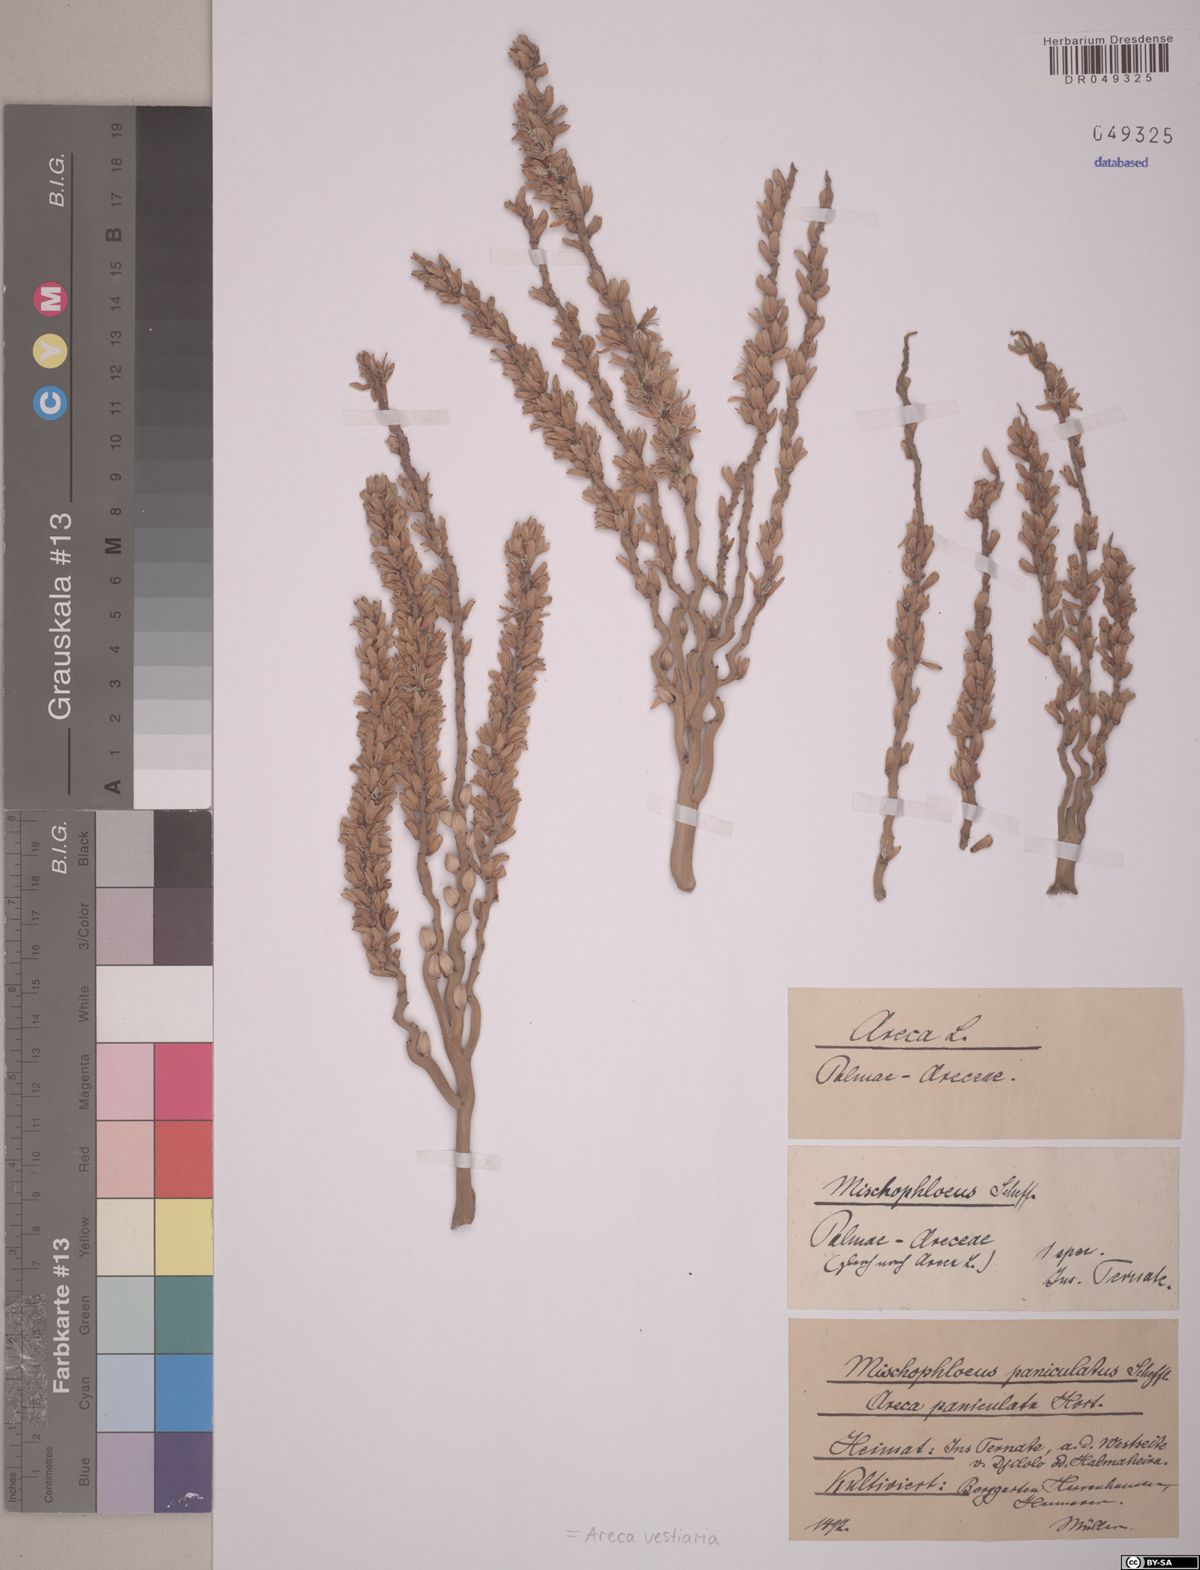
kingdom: Plantae
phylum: Tracheophyta
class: Liliopsida
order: Arecales
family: Arecaceae
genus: Areca
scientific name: Areca vestiaria
